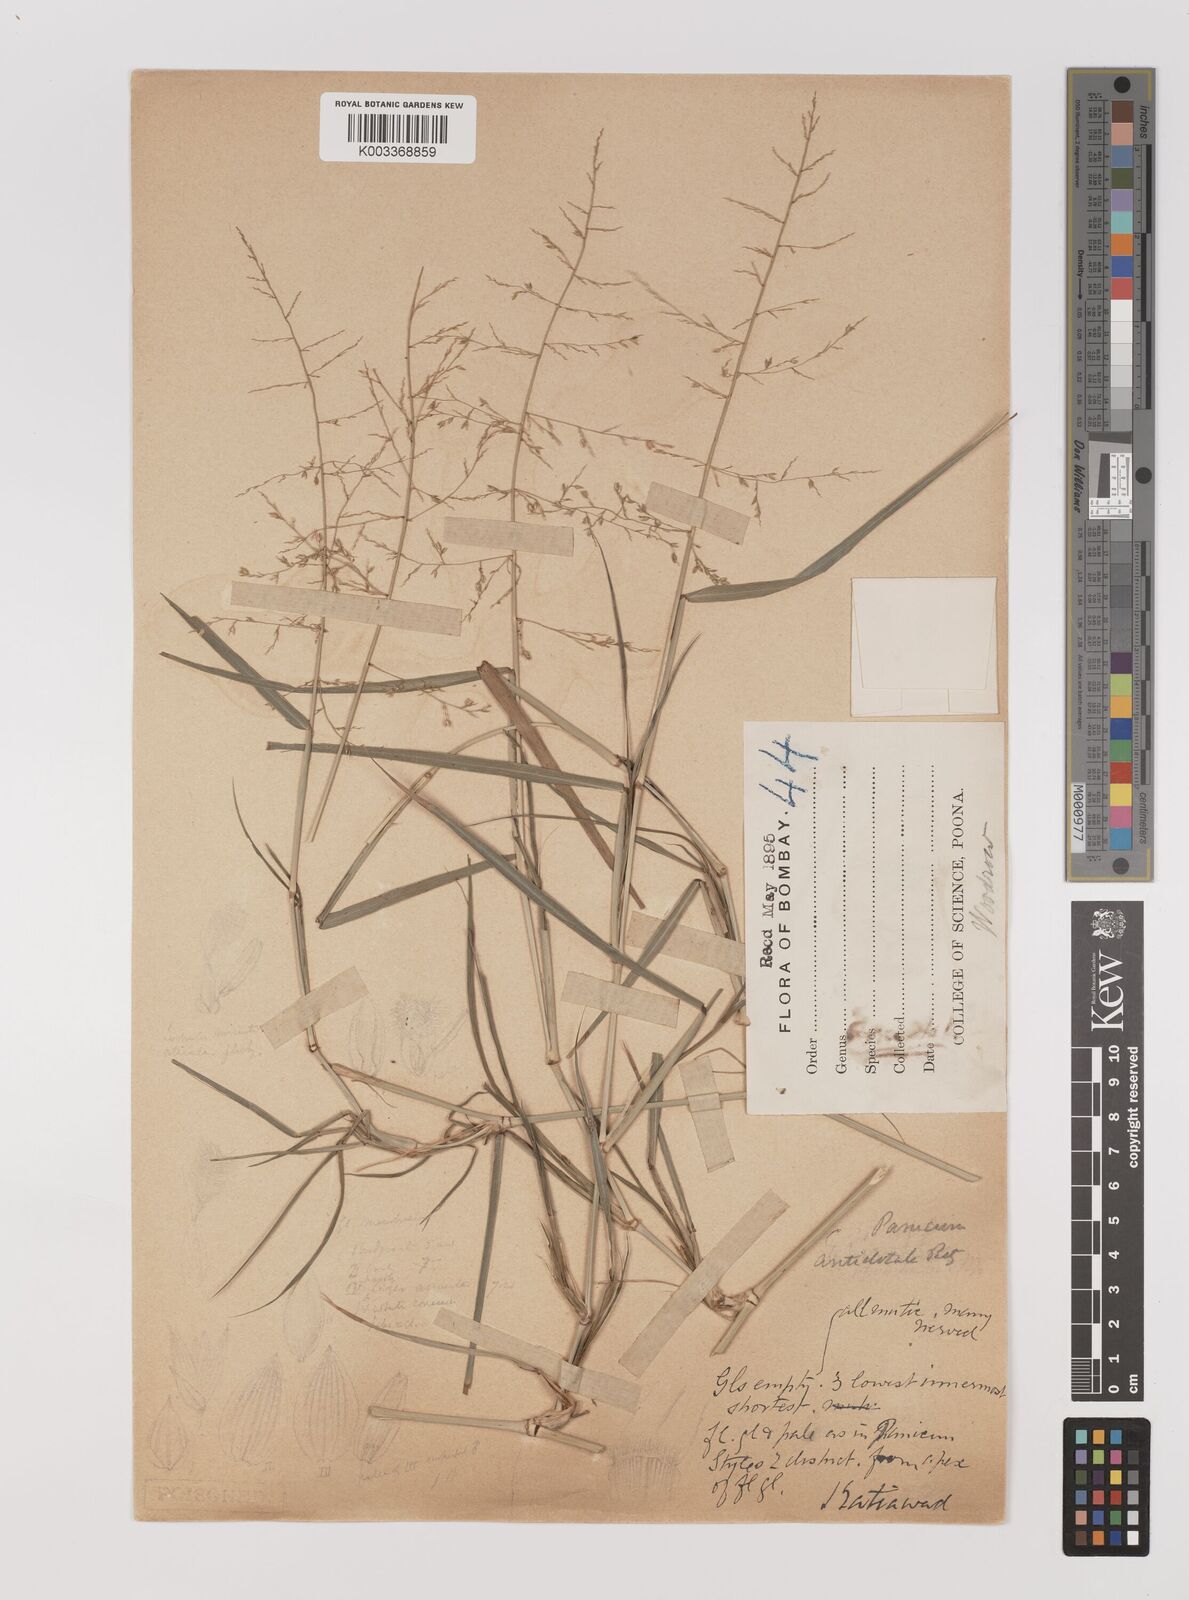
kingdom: Plantae
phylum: Tracheophyta
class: Liliopsida
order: Poales
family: Poaceae
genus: Panicum
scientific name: Panicum
